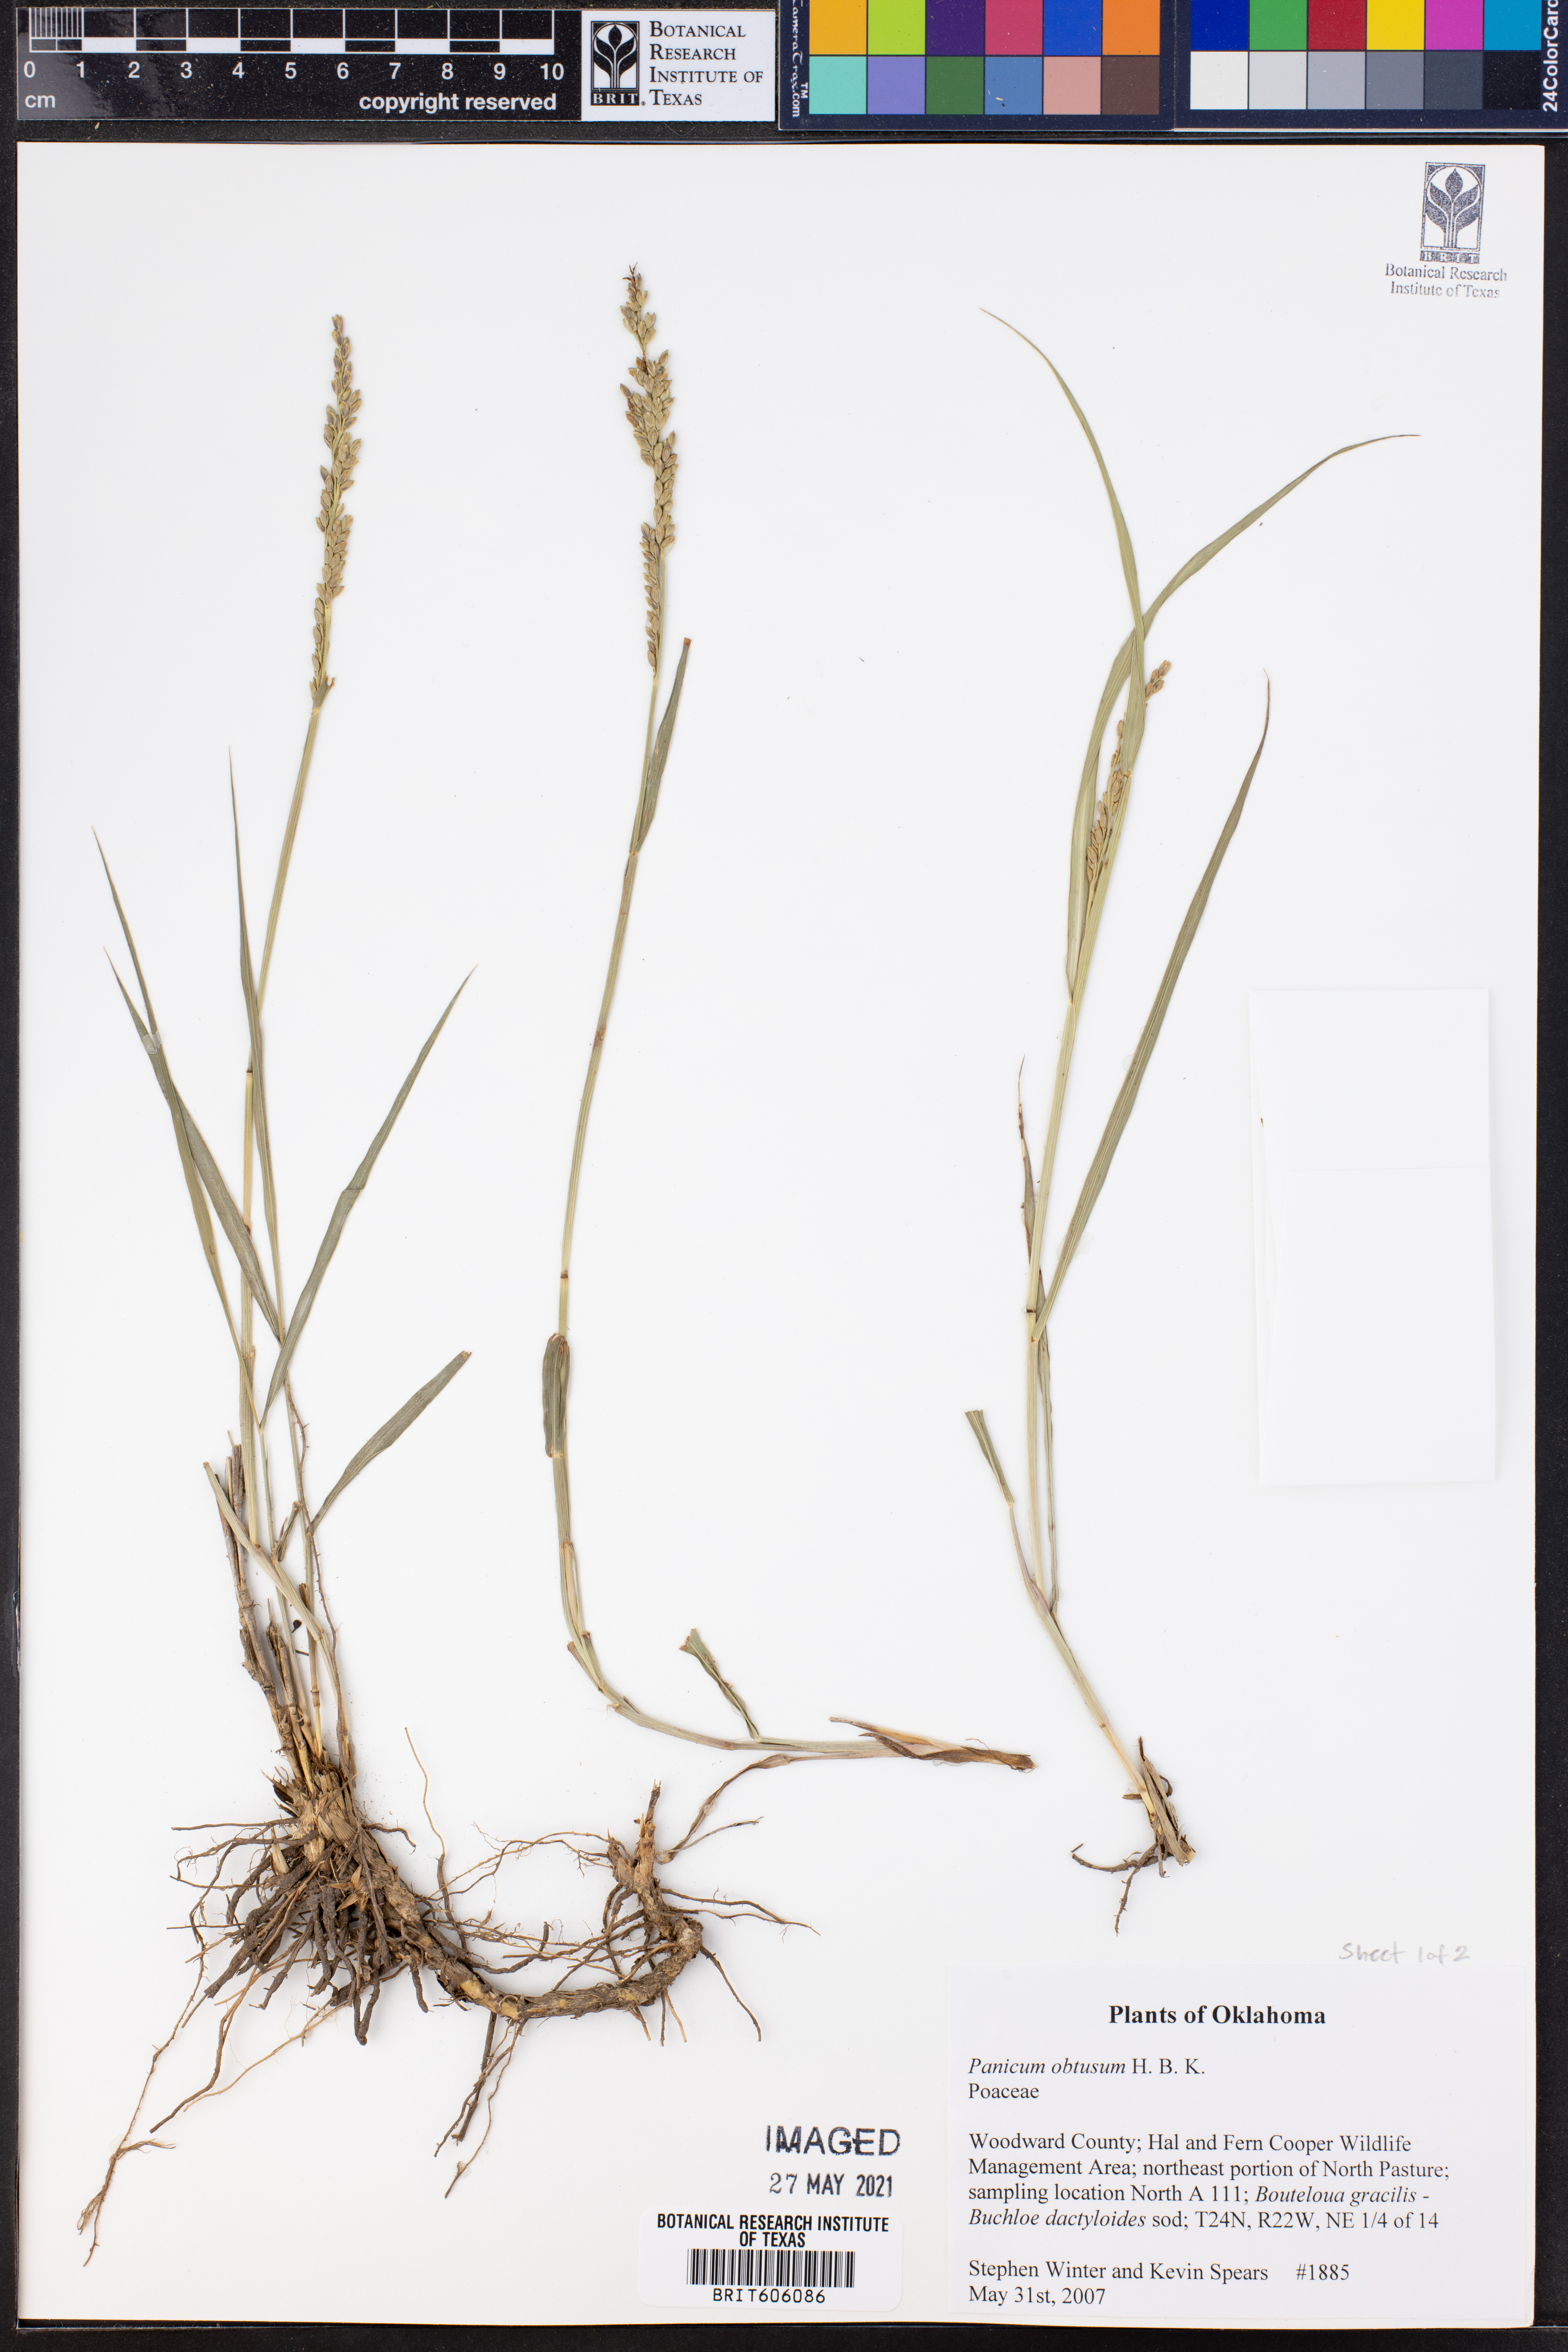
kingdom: Plantae
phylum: Tracheophyta
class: Liliopsida
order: Poales
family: Poaceae
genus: Hopia
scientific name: Hopia obtusa
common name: Vine-mesquite
